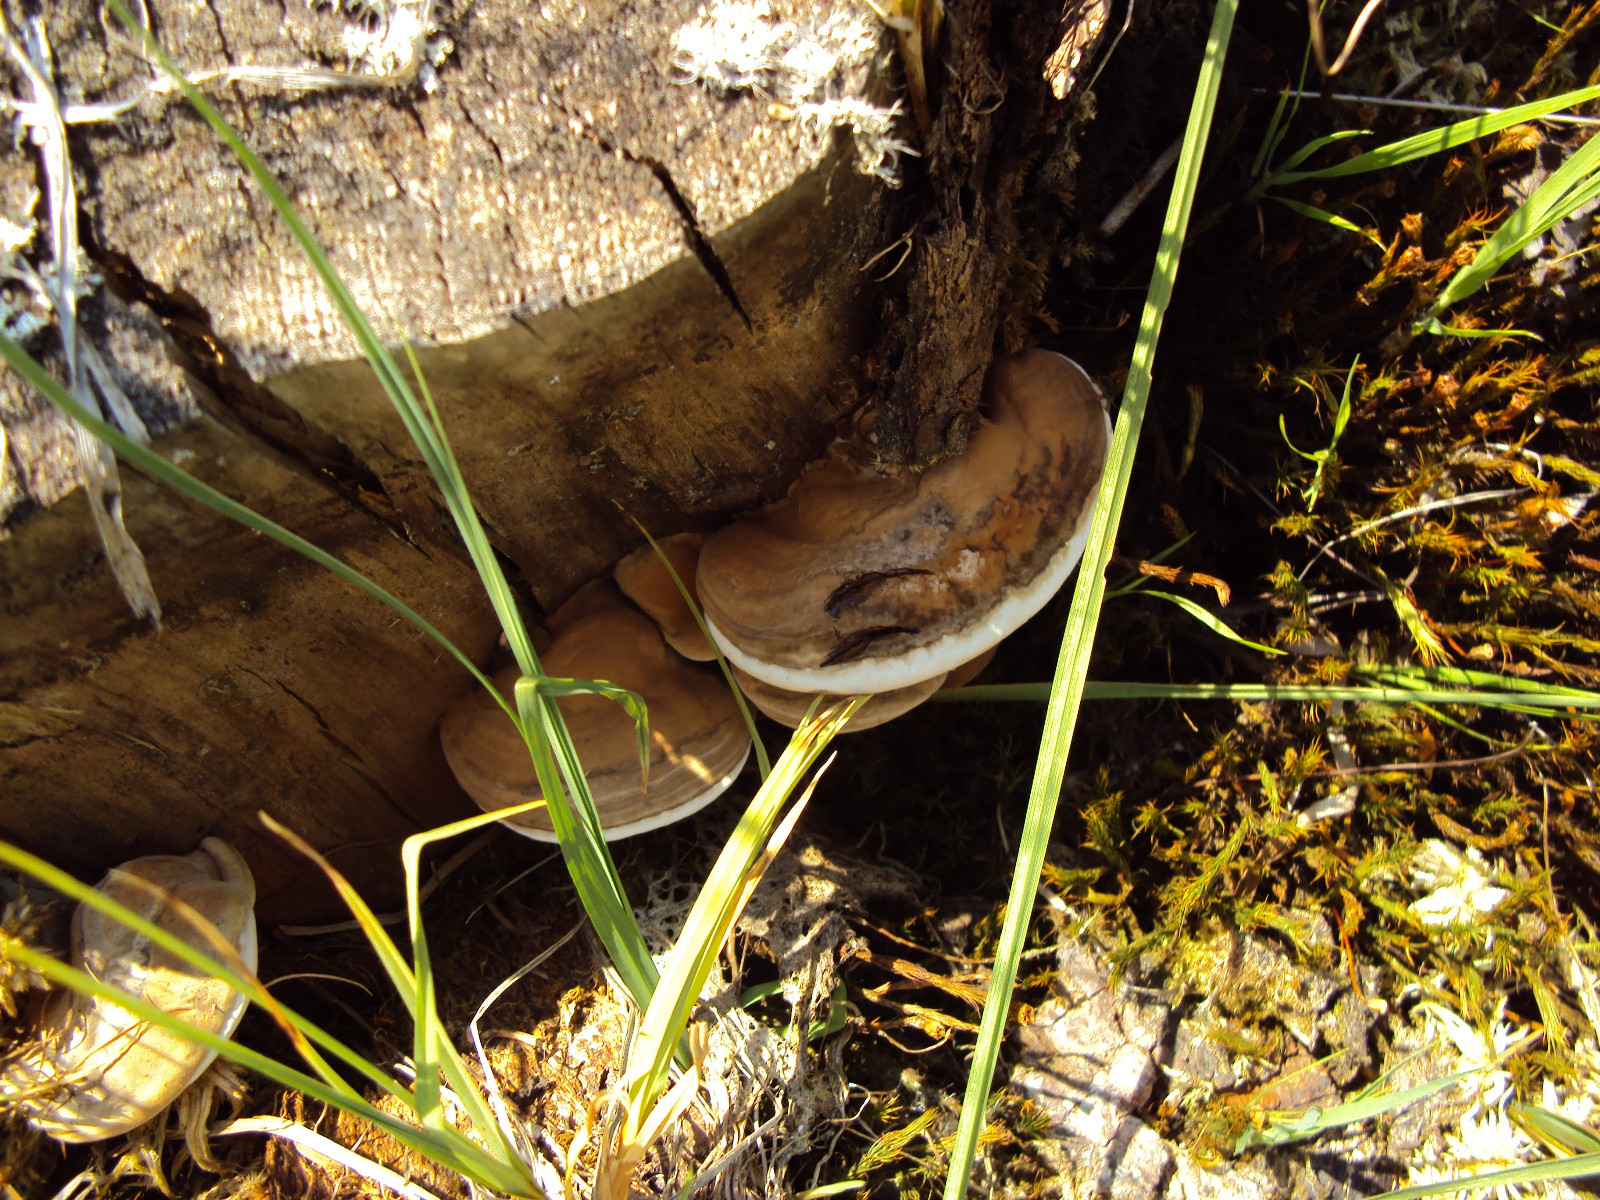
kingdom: Fungi
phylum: Basidiomycota
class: Agaricomycetes
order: Polyporales
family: Polyporaceae
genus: Ganoderma
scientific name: Ganoderma applanatum
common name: flad lakporesvamp
